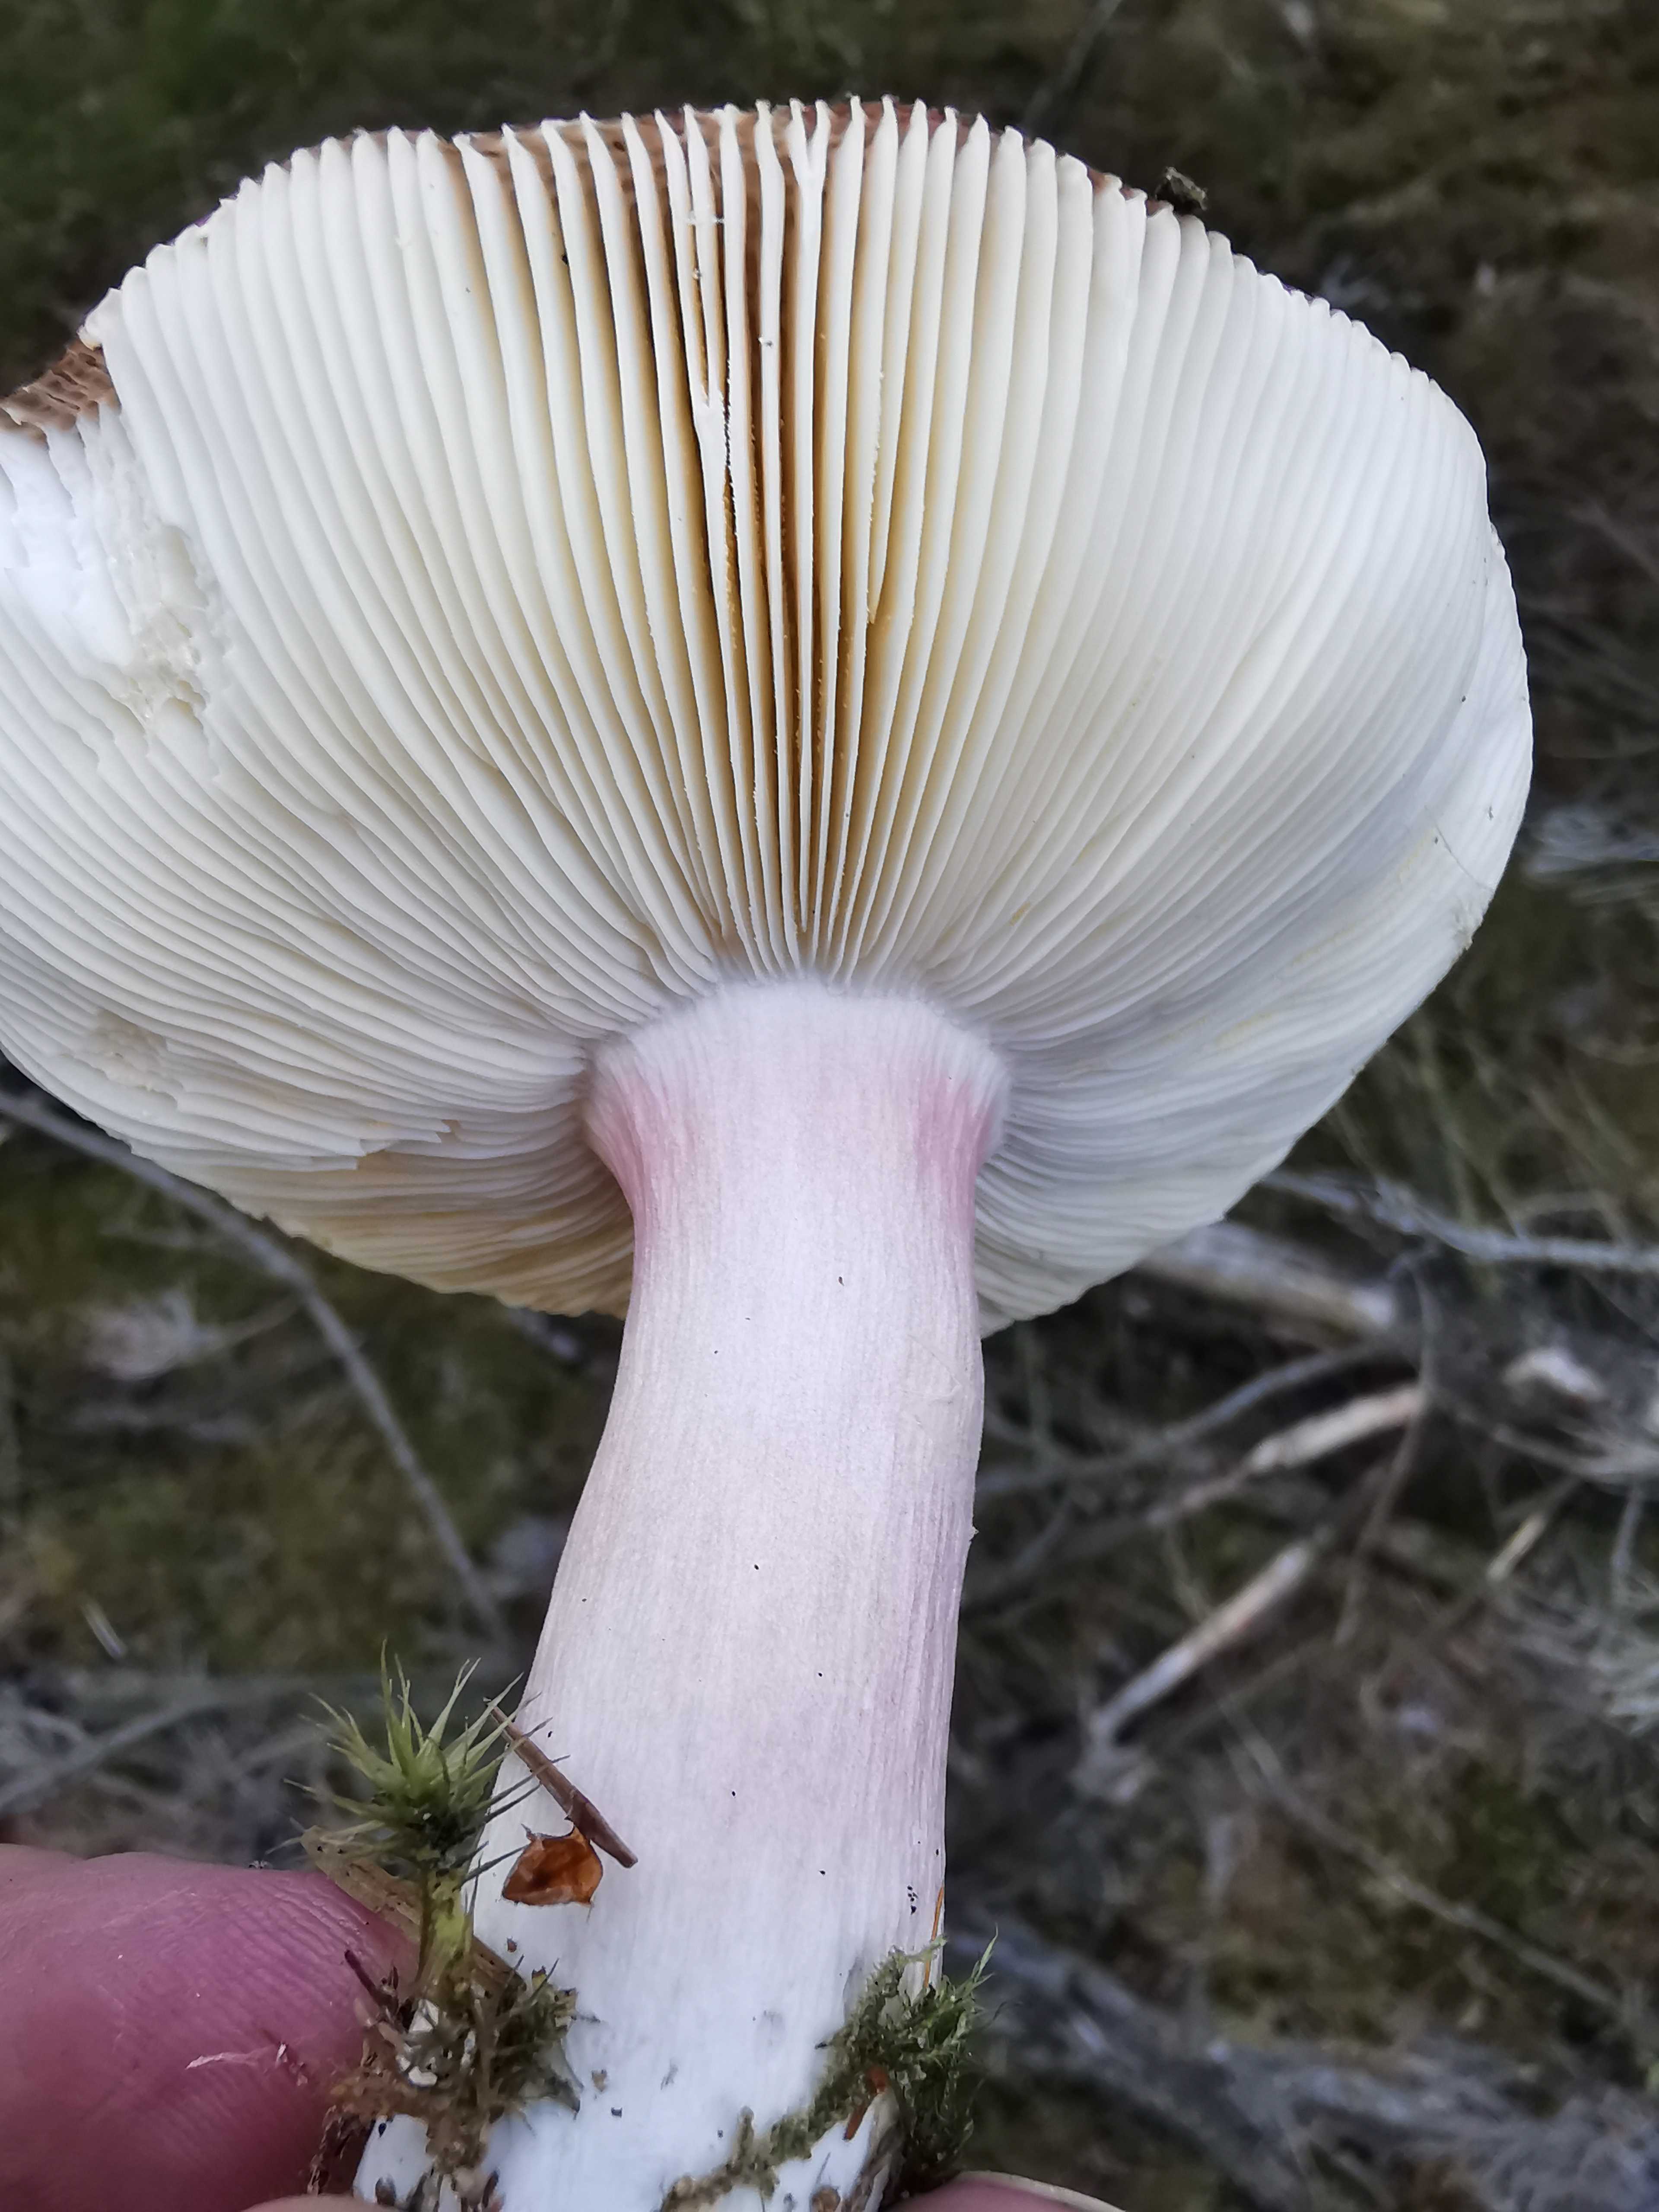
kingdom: Fungi
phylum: Basidiomycota
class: Agaricomycetes
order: Russulales
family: Russulaceae
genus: Russula
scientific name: Russula paludosa
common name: prægtig skørhat
